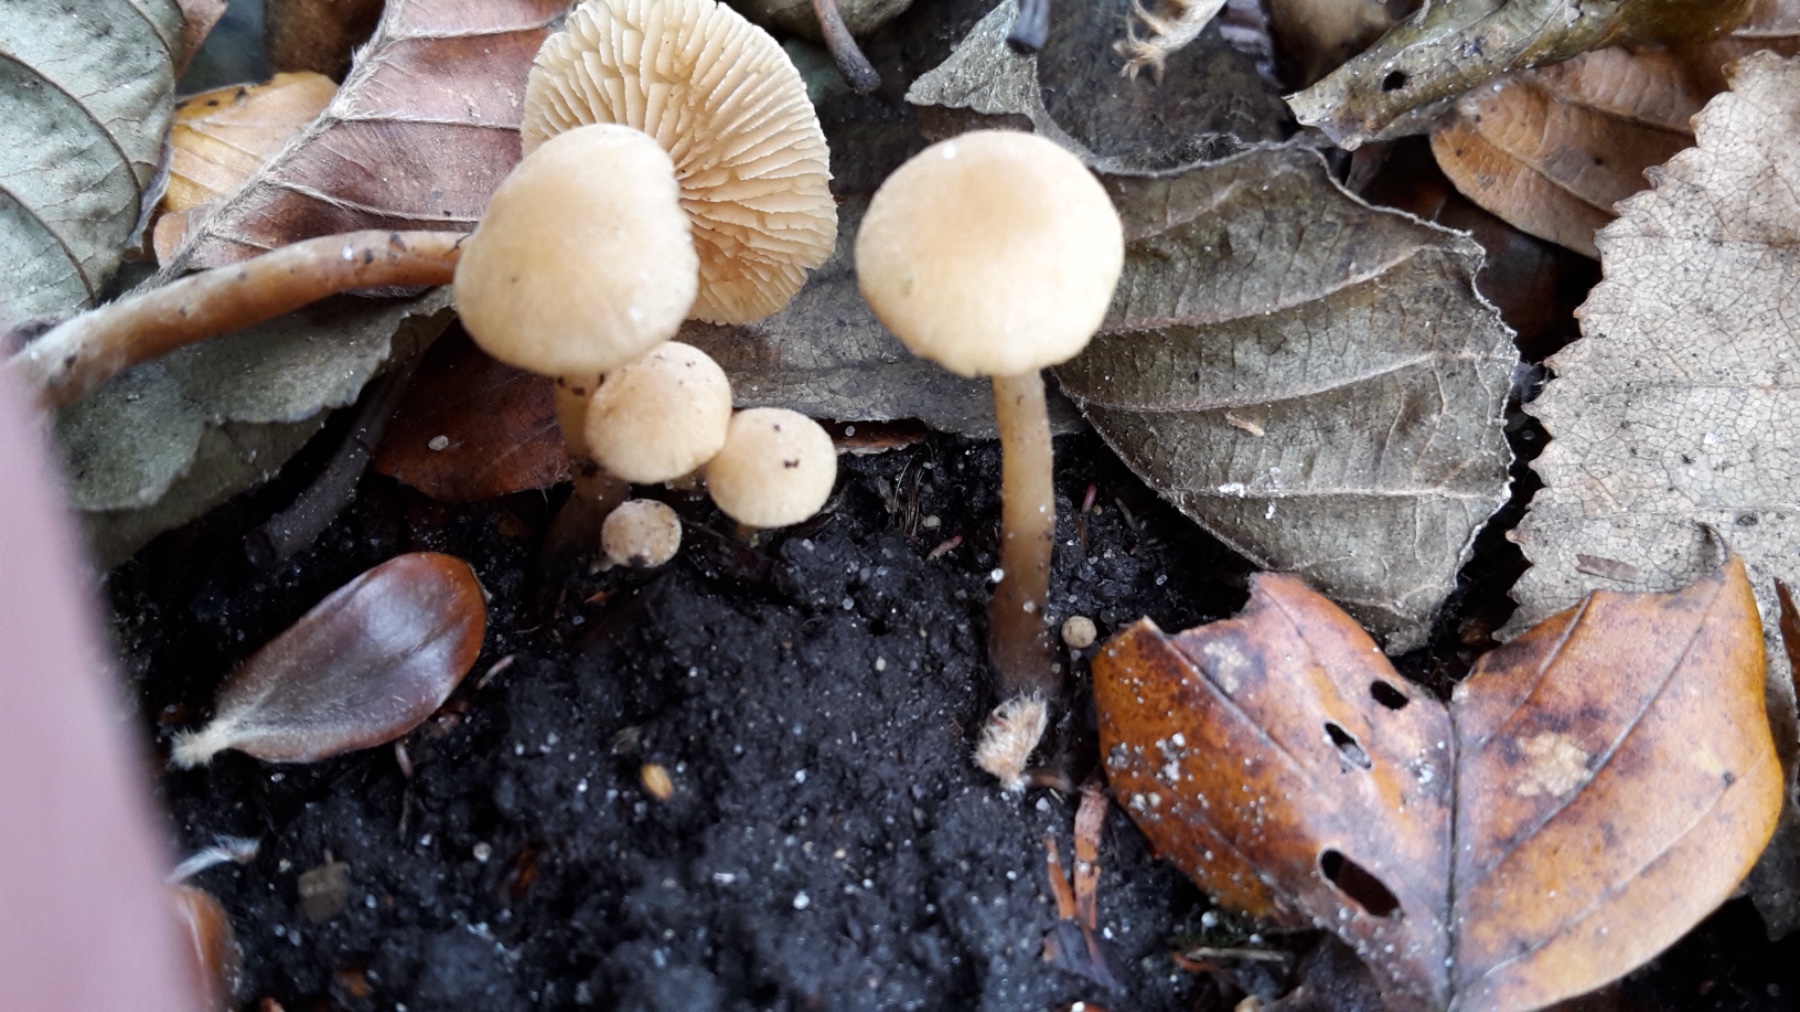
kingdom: Fungi
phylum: Basidiomycota
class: Agaricomycetes
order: Agaricales
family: Hymenogastraceae
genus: Naucoria
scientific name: Naucoria escharioides
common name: lys elle-knaphat
